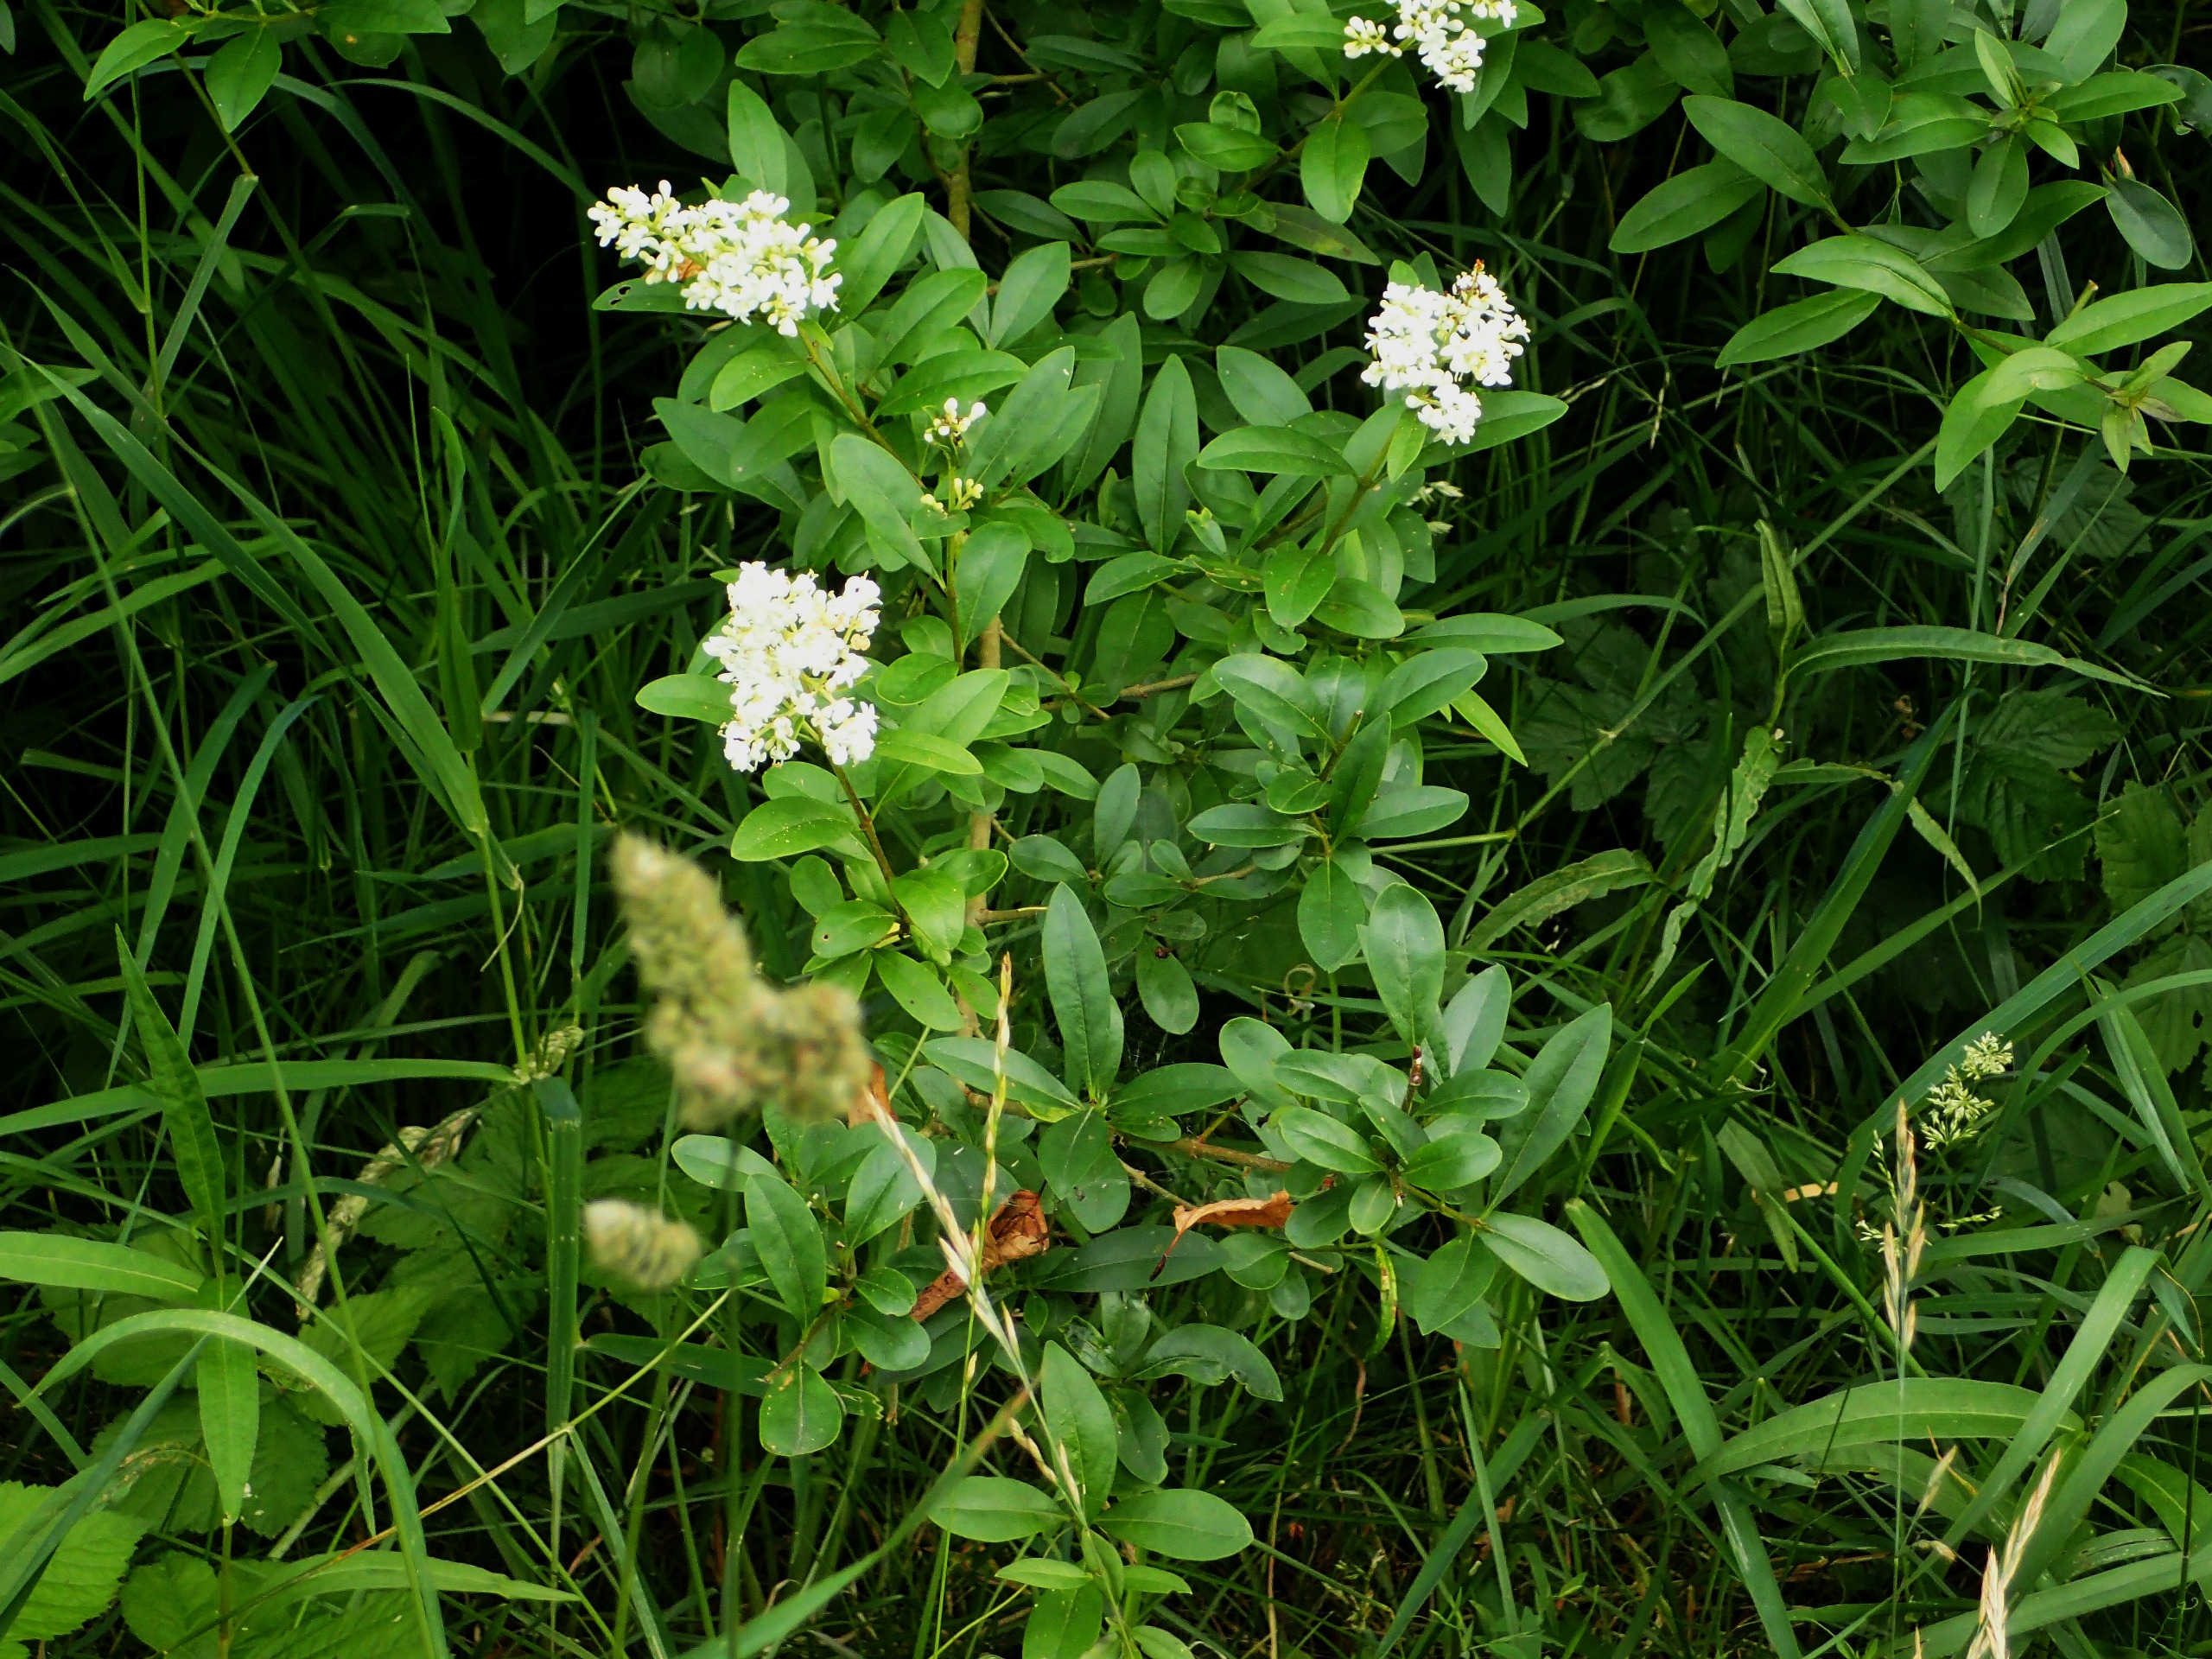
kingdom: Plantae
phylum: Tracheophyta
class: Magnoliopsida
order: Lamiales
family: Oleaceae
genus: Ligustrum
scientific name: Ligustrum vulgare
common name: Liguster
